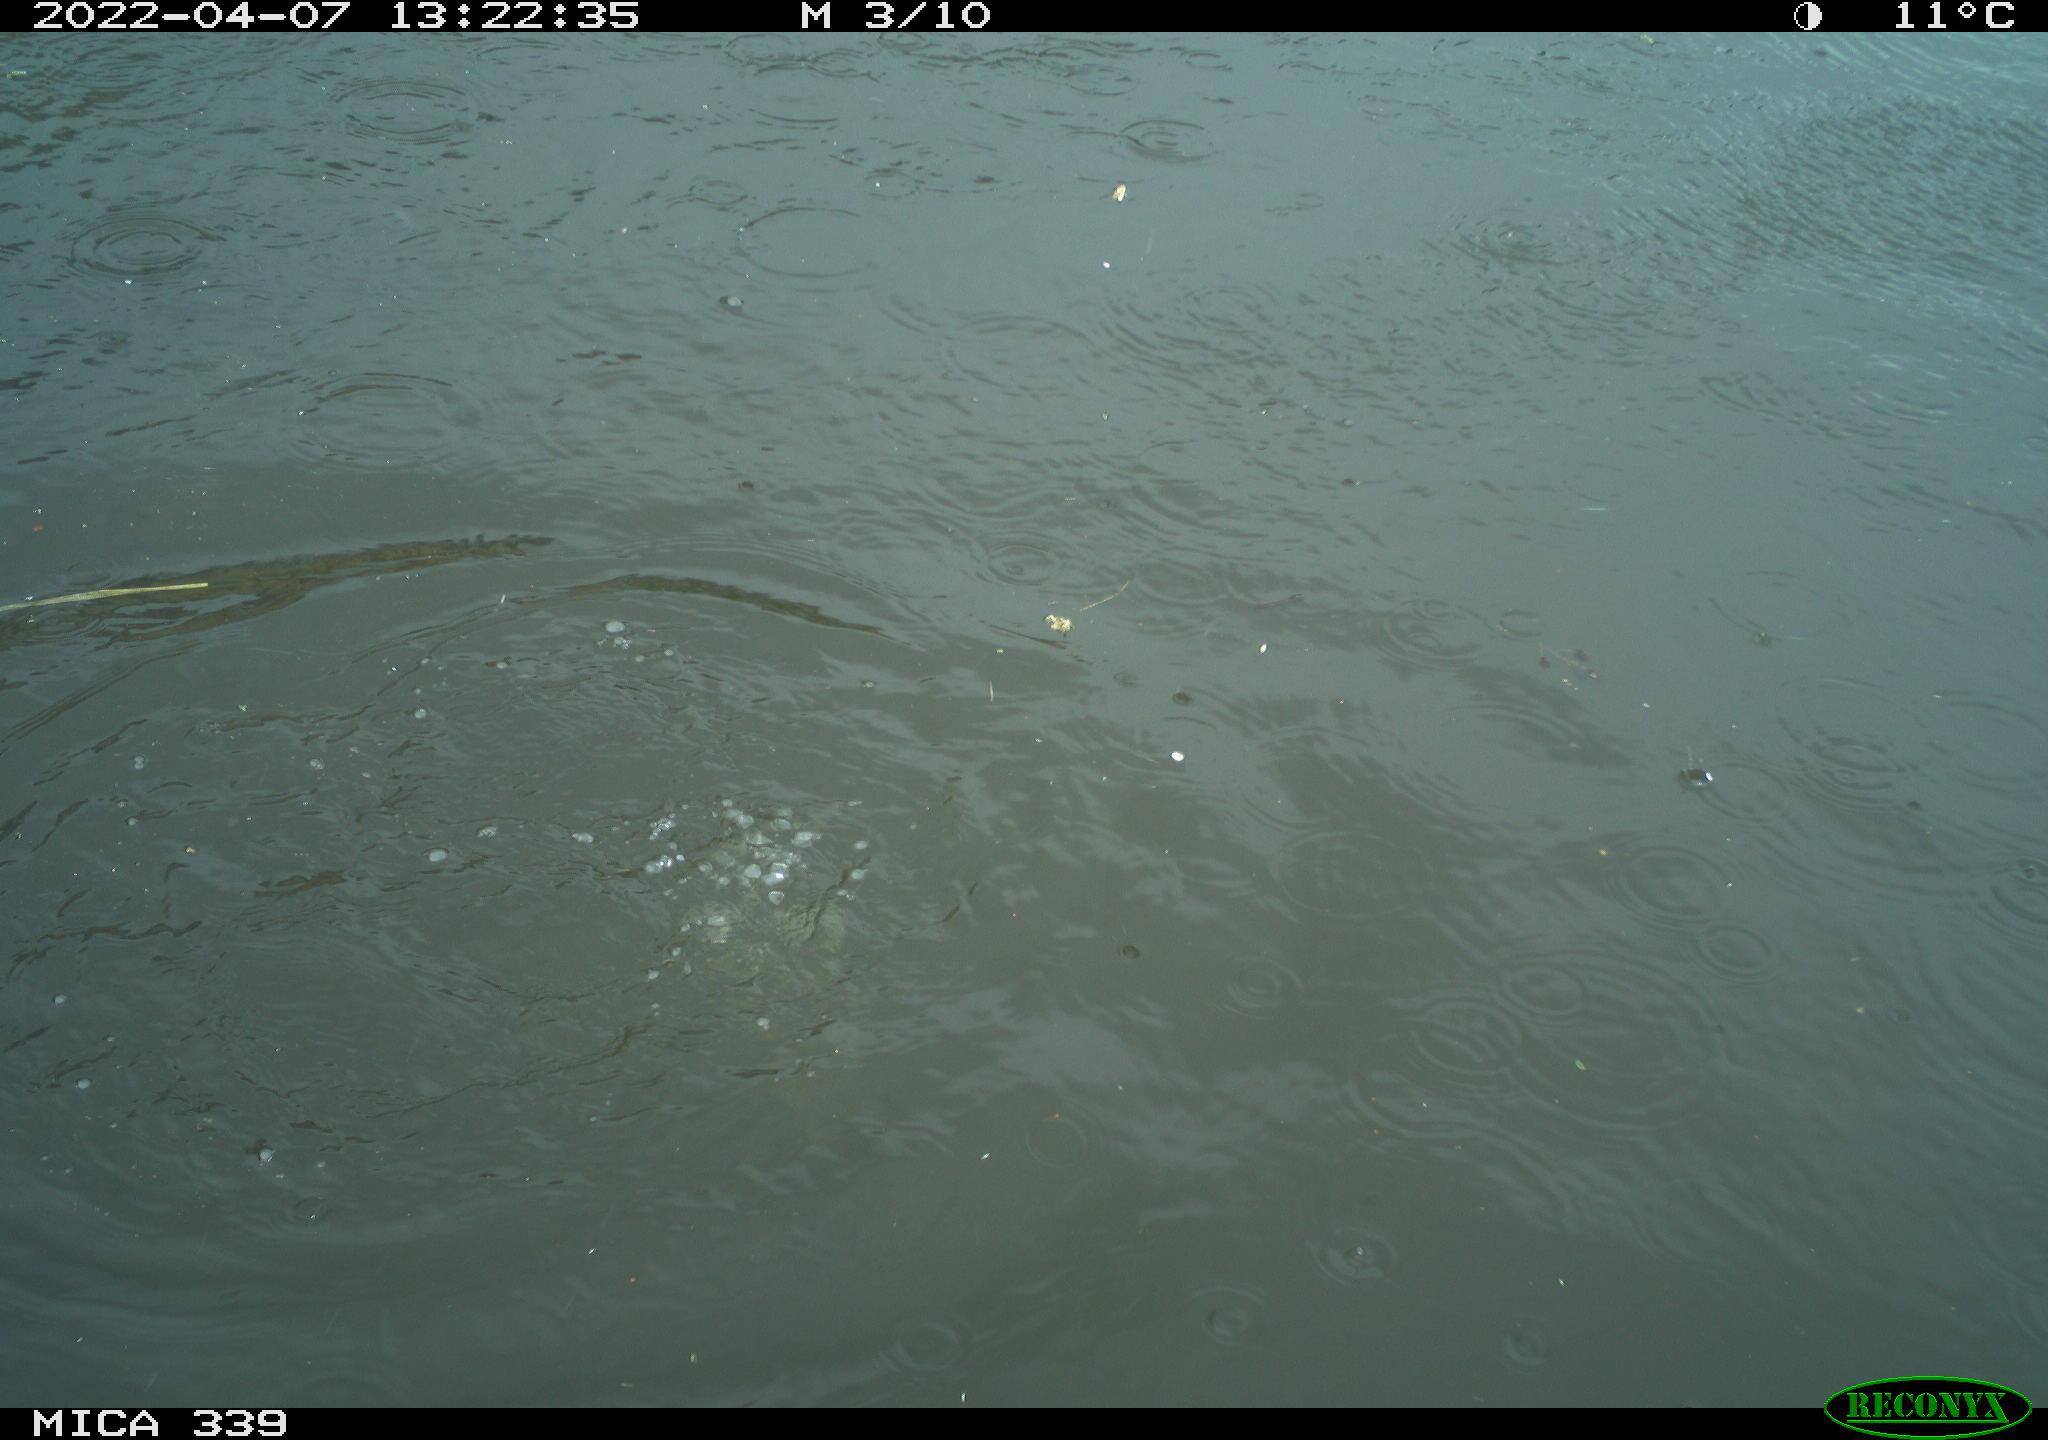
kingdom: Animalia
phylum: Chordata
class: Aves
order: Gruiformes
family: Rallidae
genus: Fulica
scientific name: Fulica atra
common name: Eurasian coot
